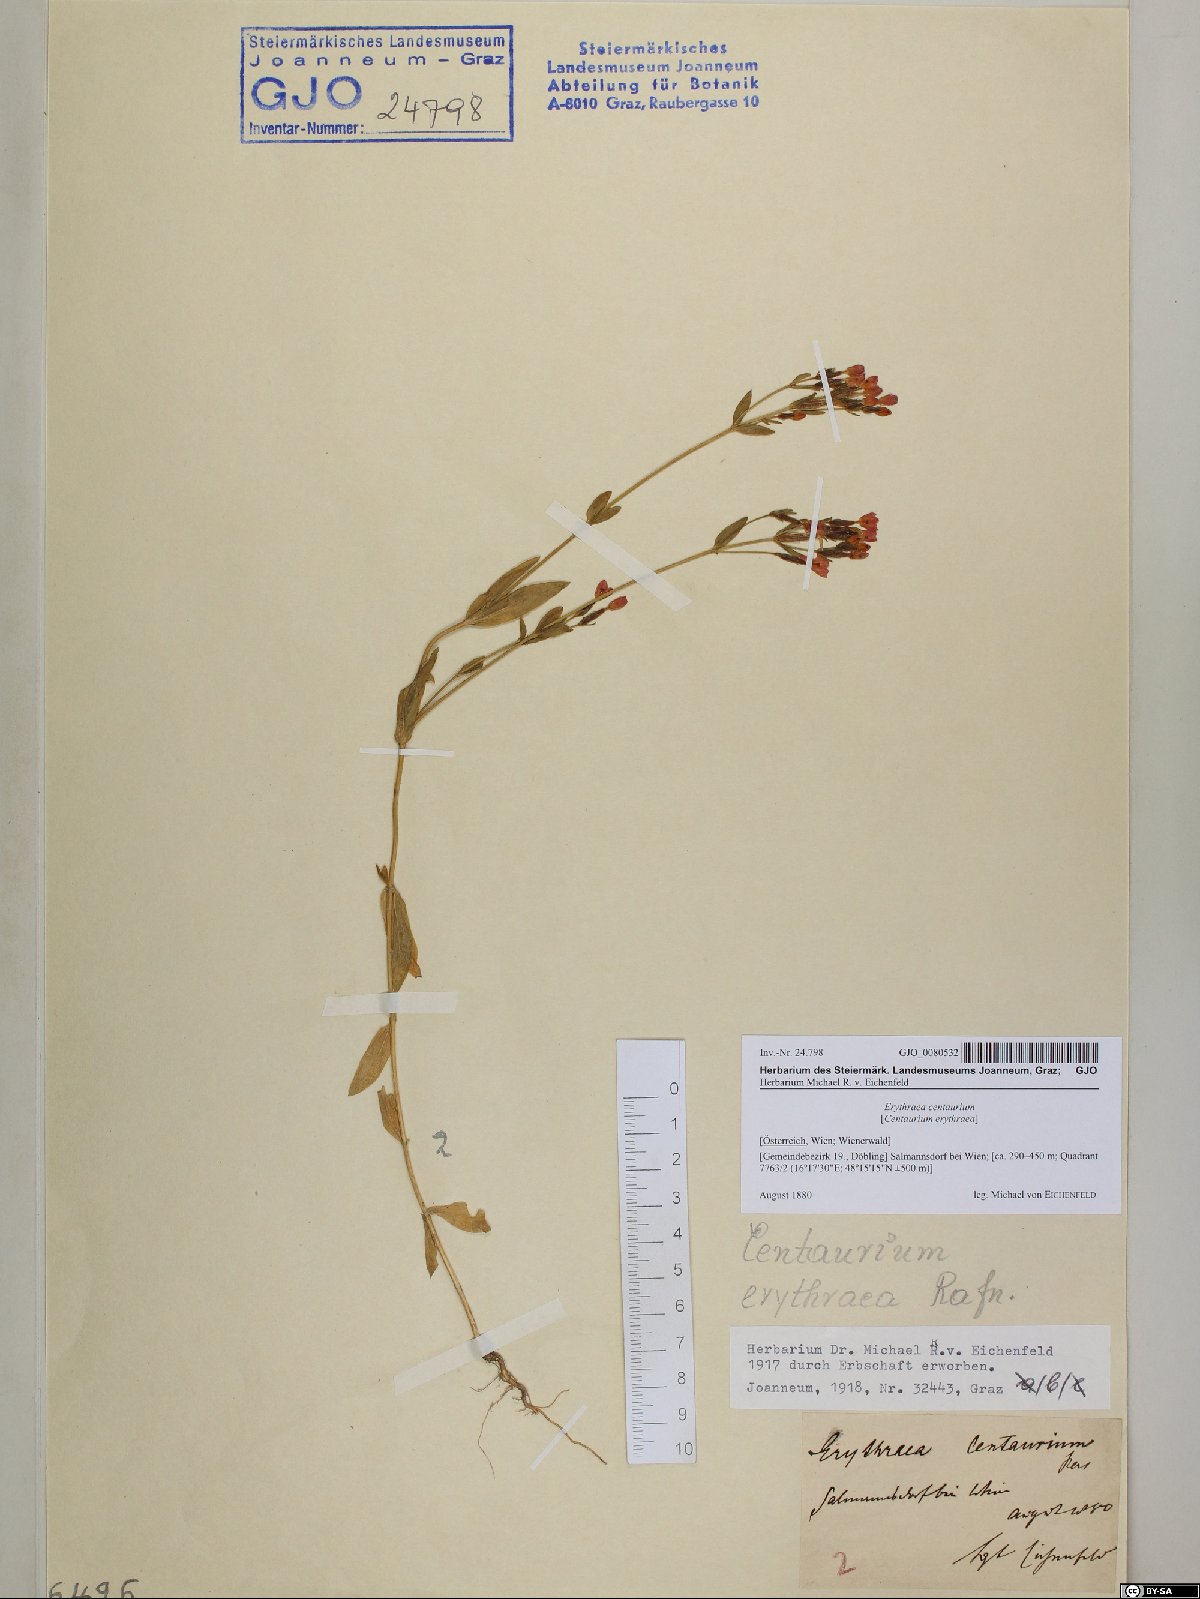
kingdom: Plantae
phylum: Tracheophyta
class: Magnoliopsida
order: Gentianales
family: Gentianaceae
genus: Centaurium
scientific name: Centaurium erythraea
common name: Common centaury
